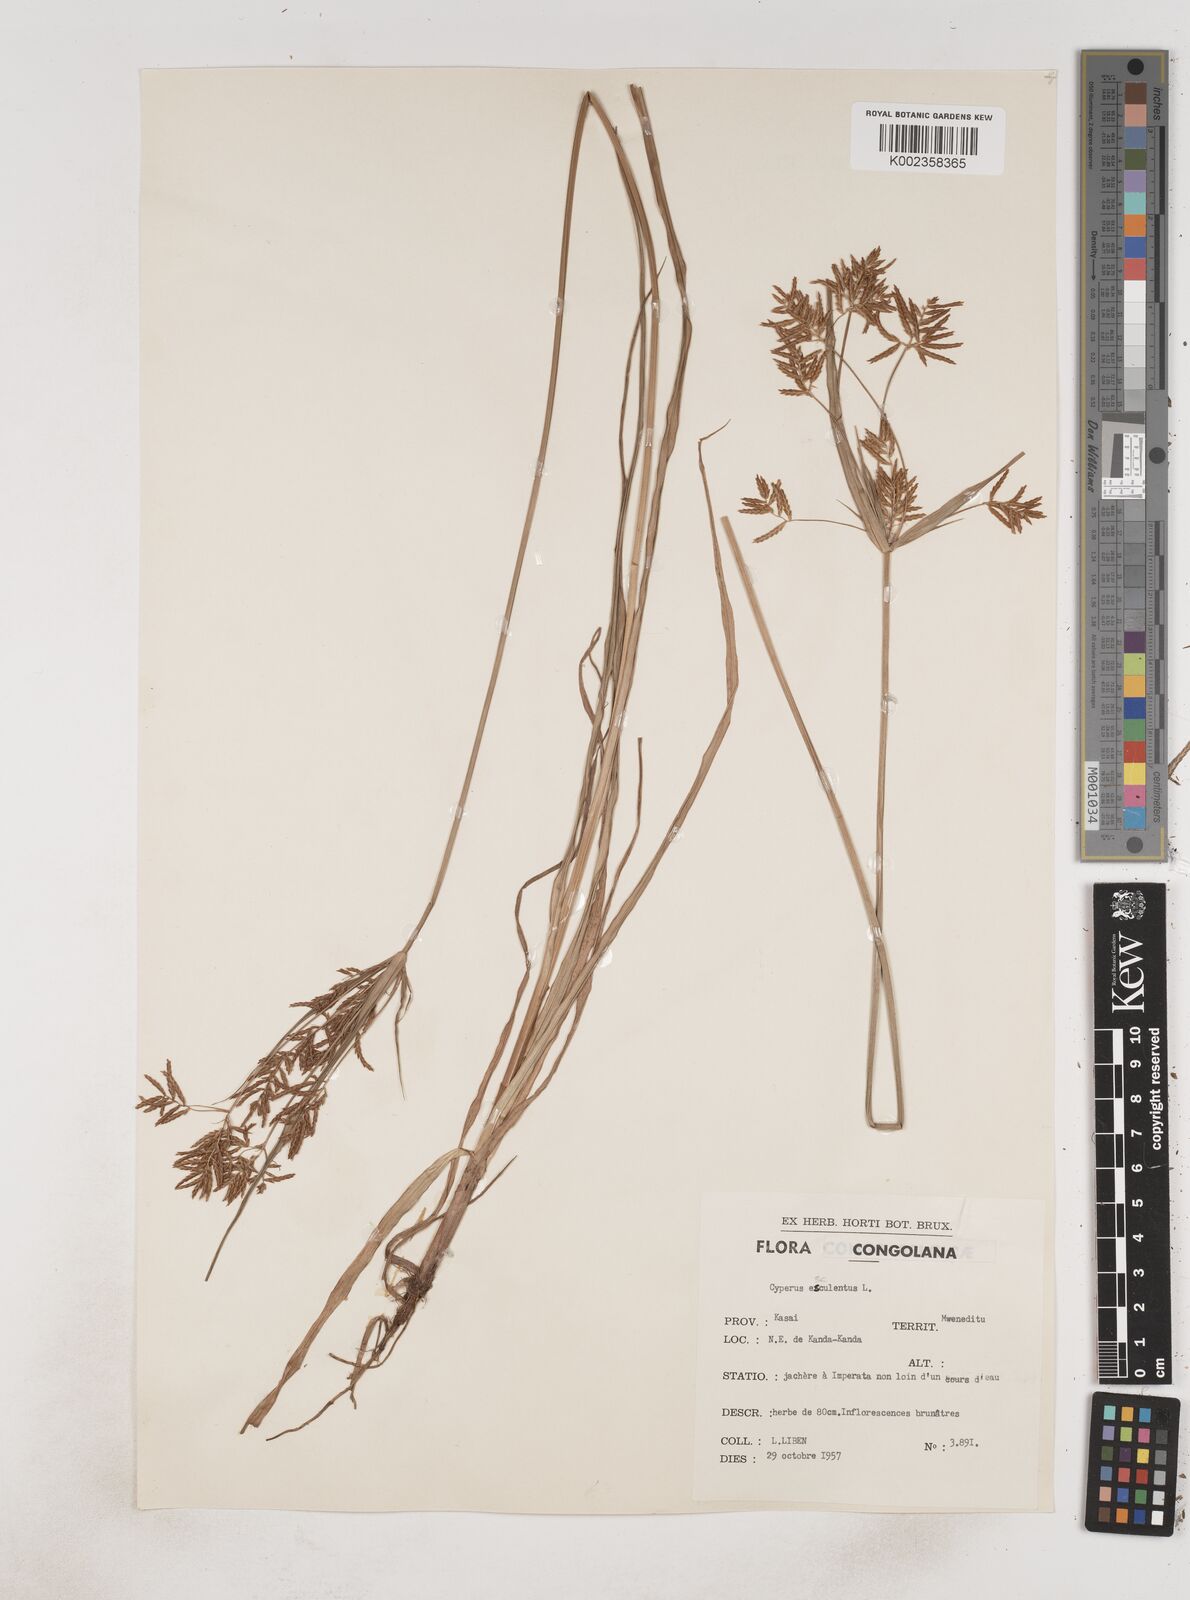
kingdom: Plantae
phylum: Tracheophyta
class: Liliopsida
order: Poales
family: Cyperaceae
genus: Cyperus
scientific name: Cyperus esculentus
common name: Yellow nutsedge
